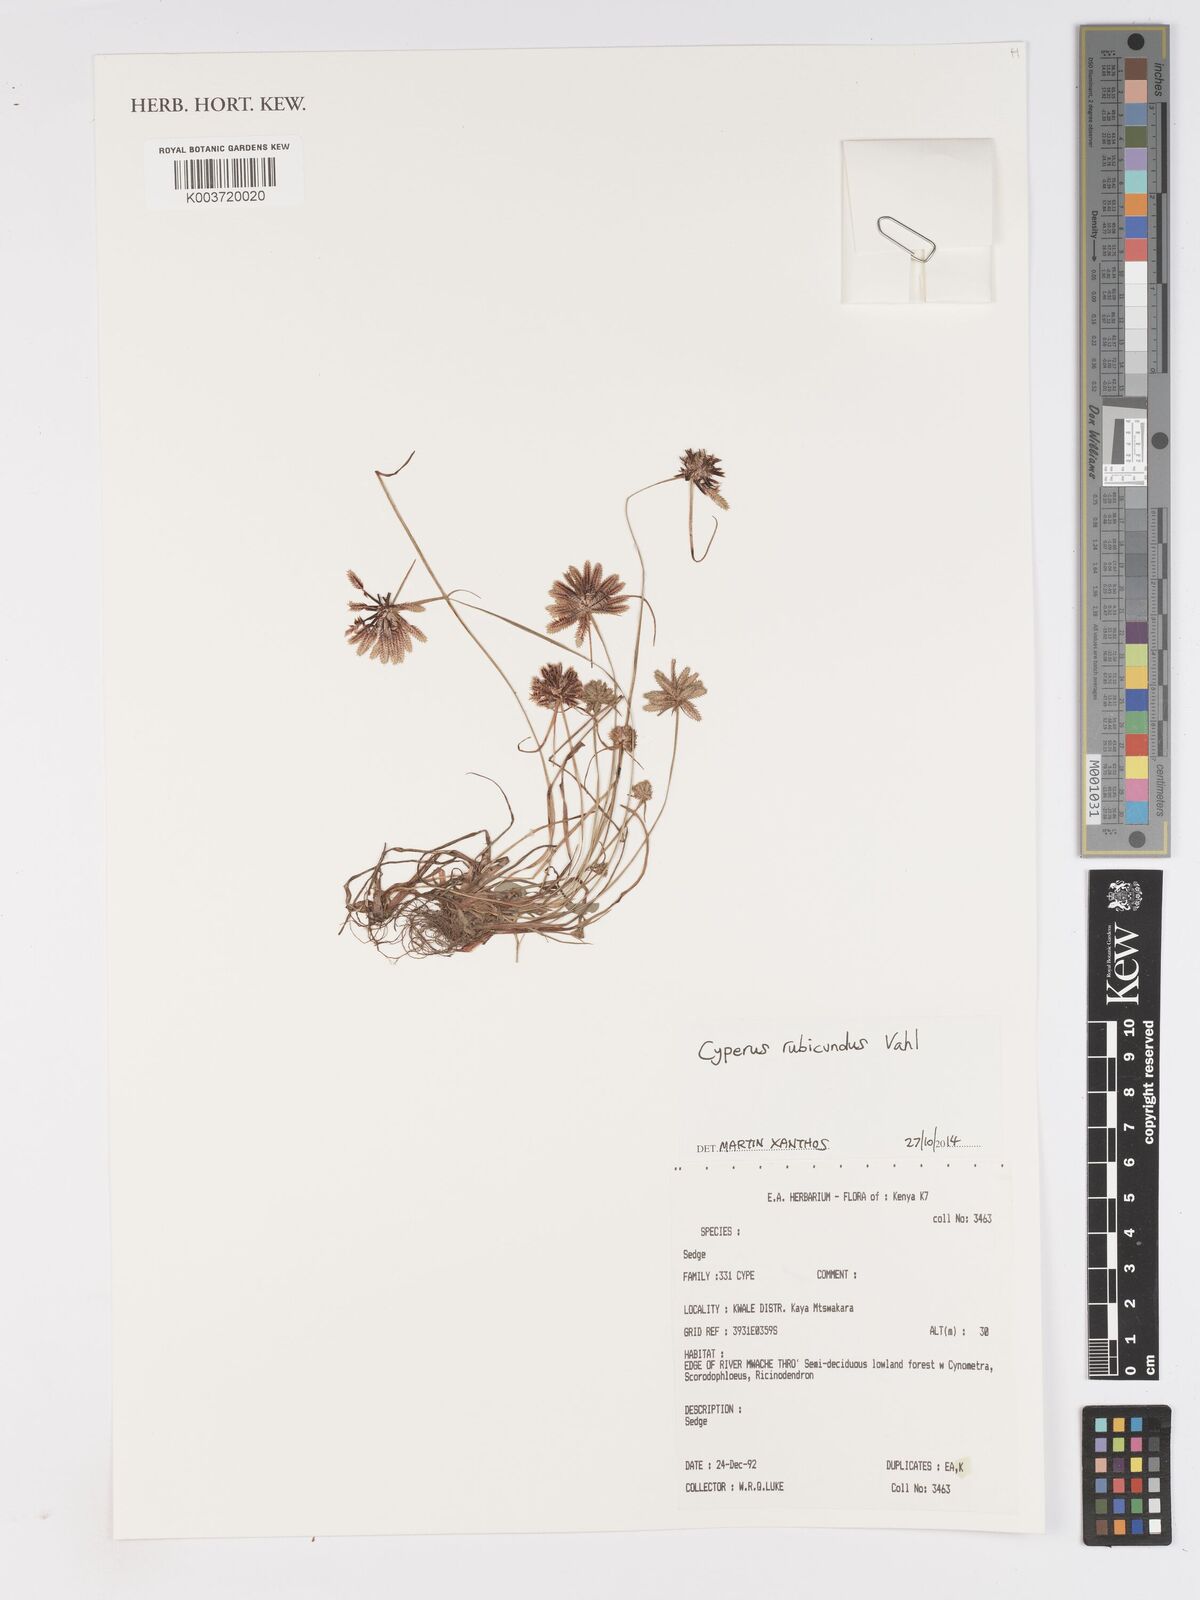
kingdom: Plantae
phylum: Tracheophyta
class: Liliopsida
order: Poales
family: Cyperaceae
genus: Cyperus
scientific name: Cyperus rubicundus
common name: Coco-grass
